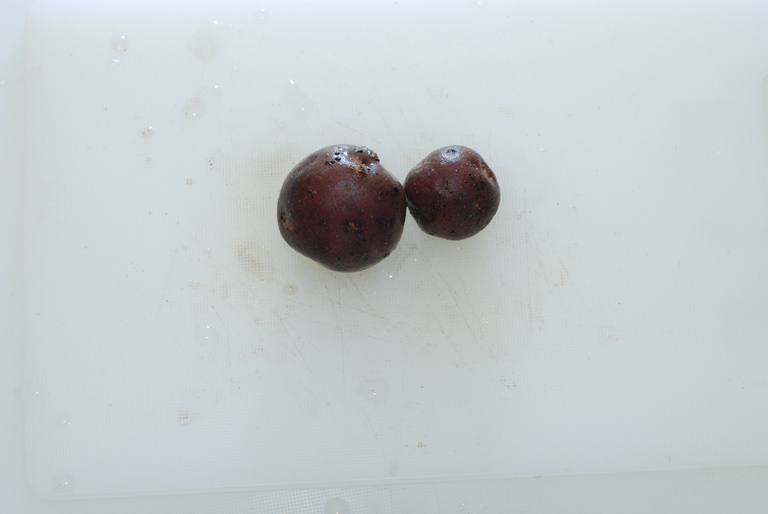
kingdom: Plantae
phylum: Tracheophyta
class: Magnoliopsida
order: Solanales
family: Solanaceae
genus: Solanum
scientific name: Solanum tuberosum
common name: Potato
